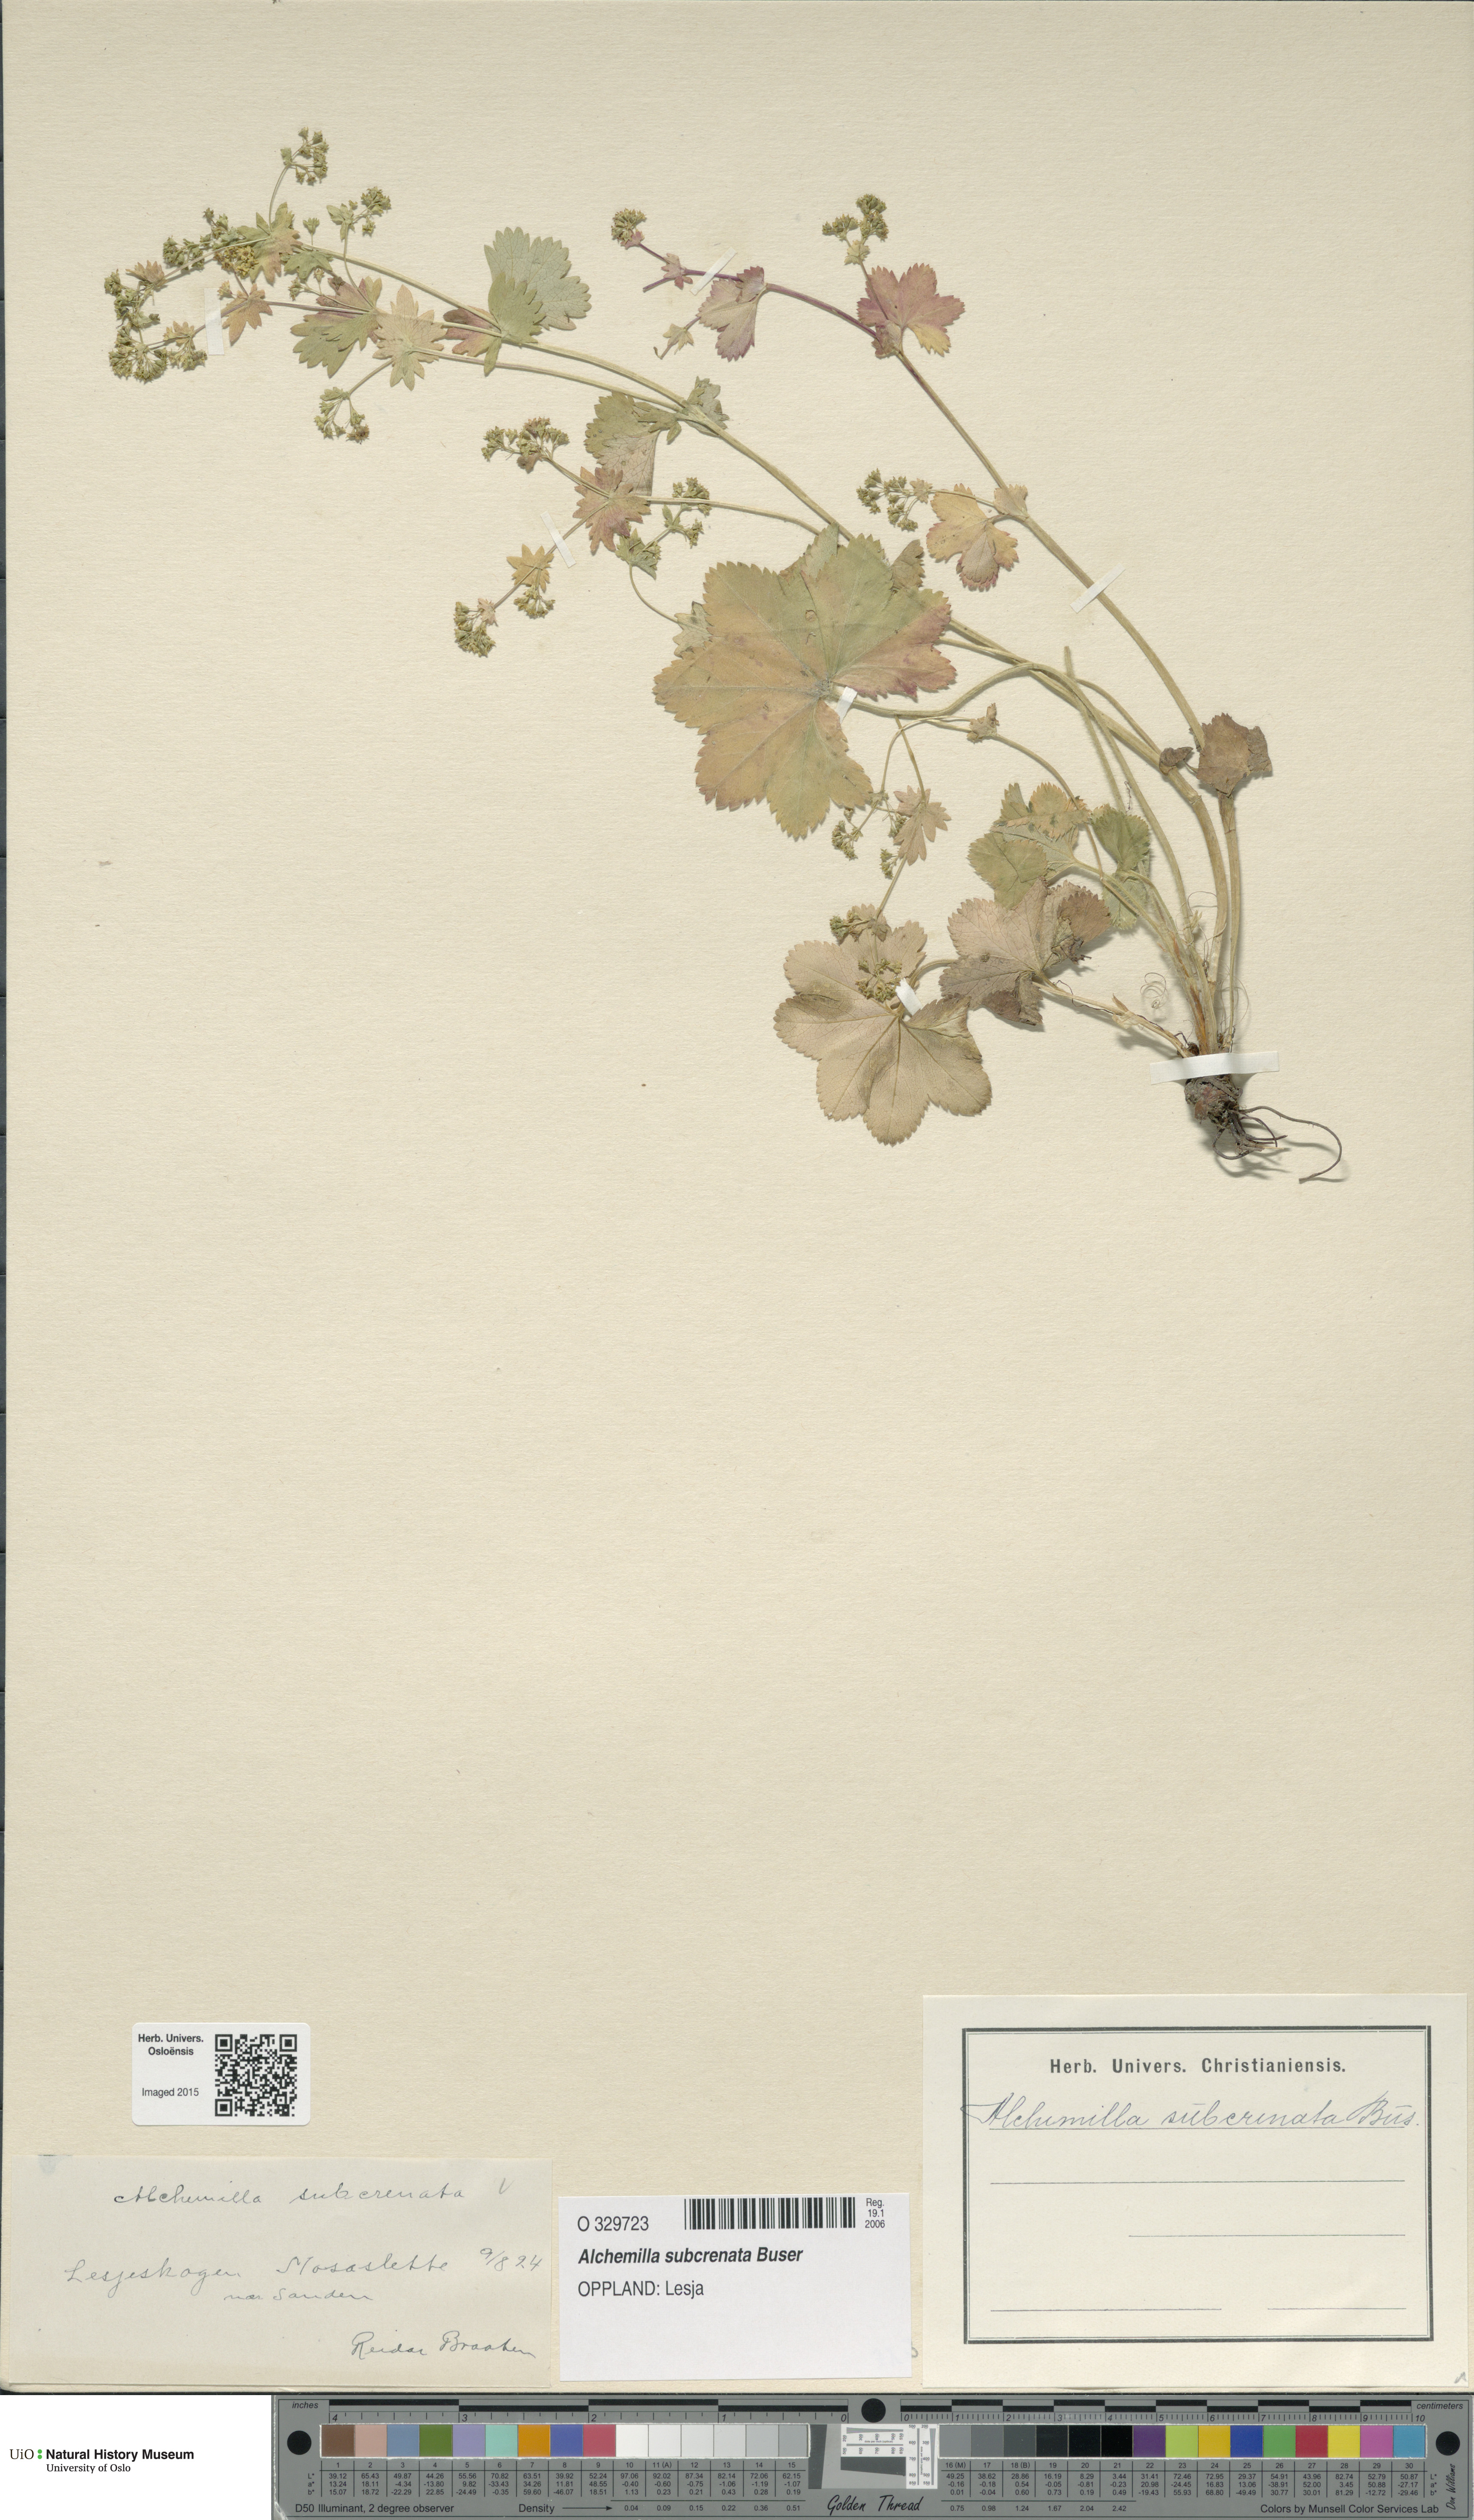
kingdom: Plantae
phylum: Tracheophyta
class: Magnoliopsida
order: Rosales
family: Rosaceae
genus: Alchemilla
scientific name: Alchemilla subcrenata
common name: Broadtooth lady's mantle
